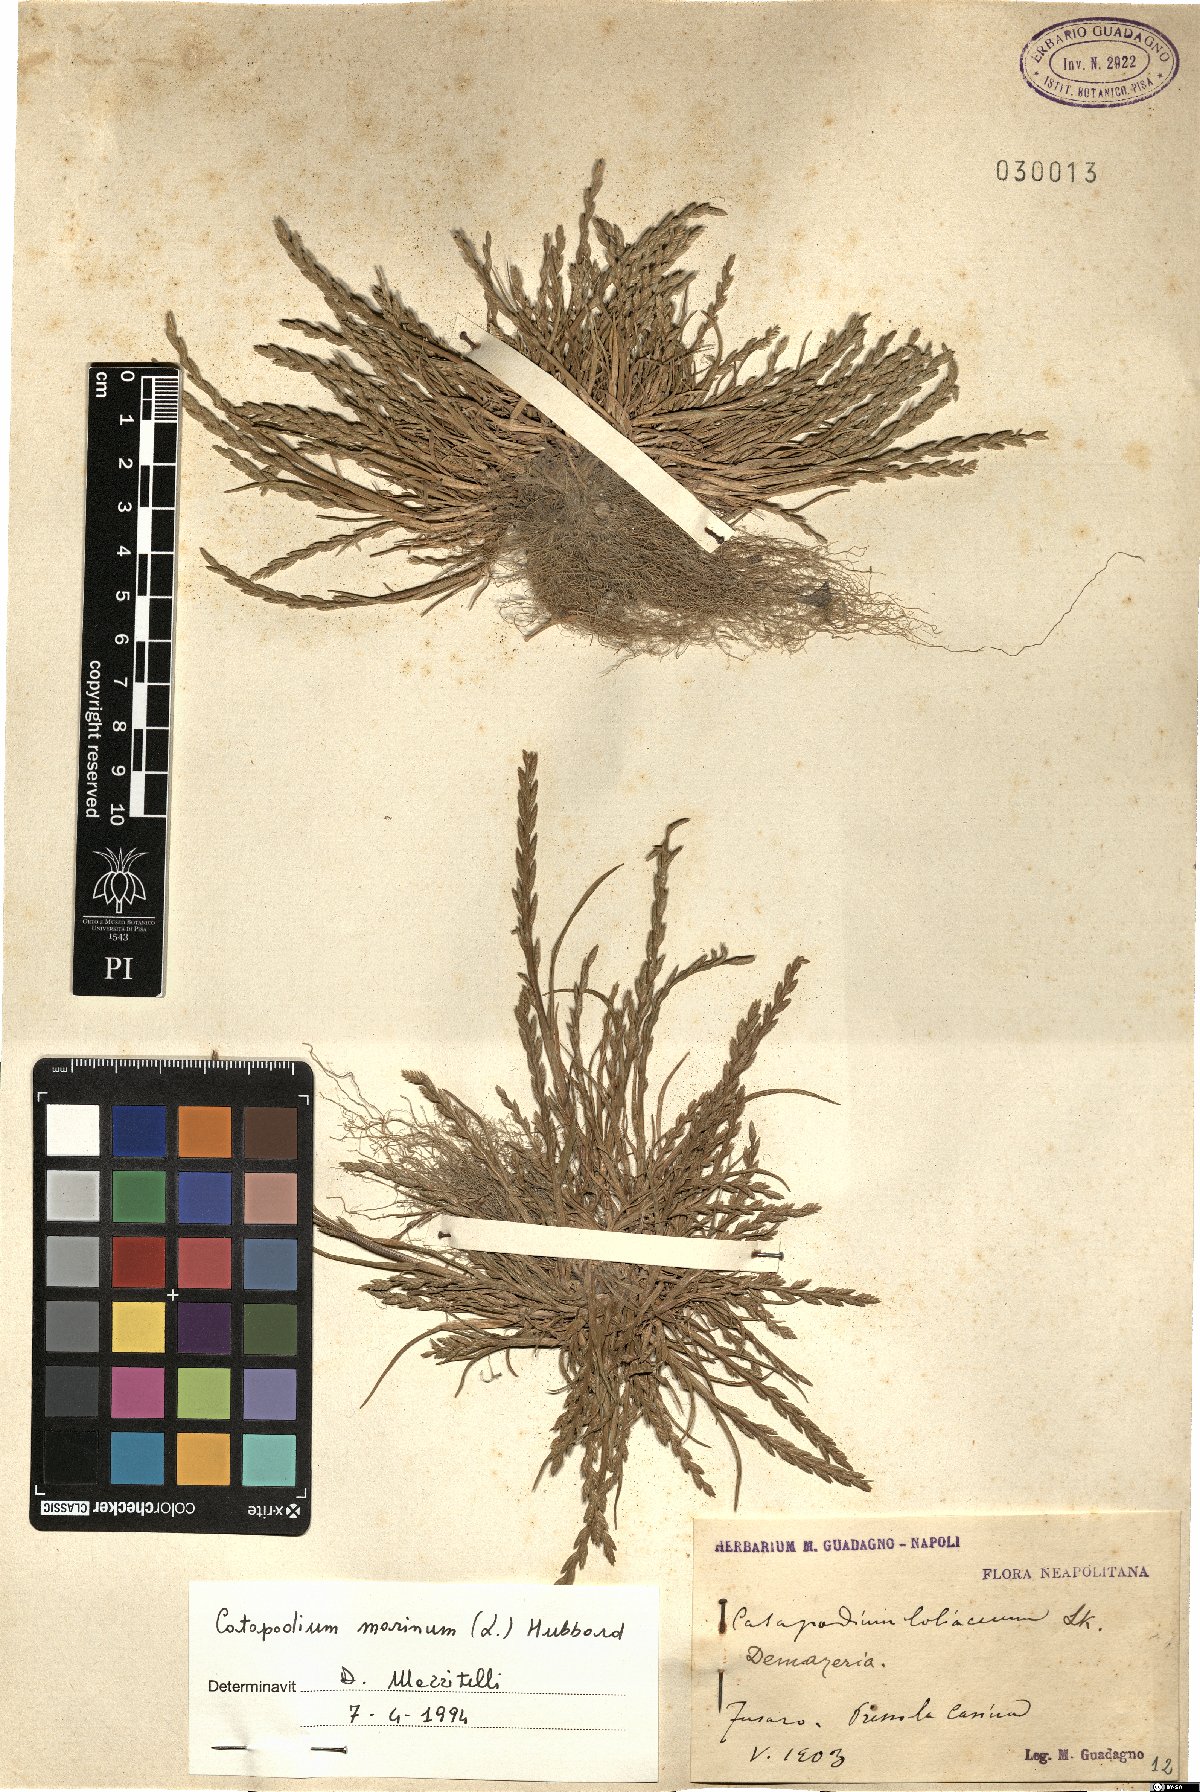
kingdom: Plantae
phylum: Tracheophyta
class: Liliopsida
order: Poales
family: Poaceae
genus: Catapodium
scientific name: Catapodium marinum
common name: Sea fern-grass
